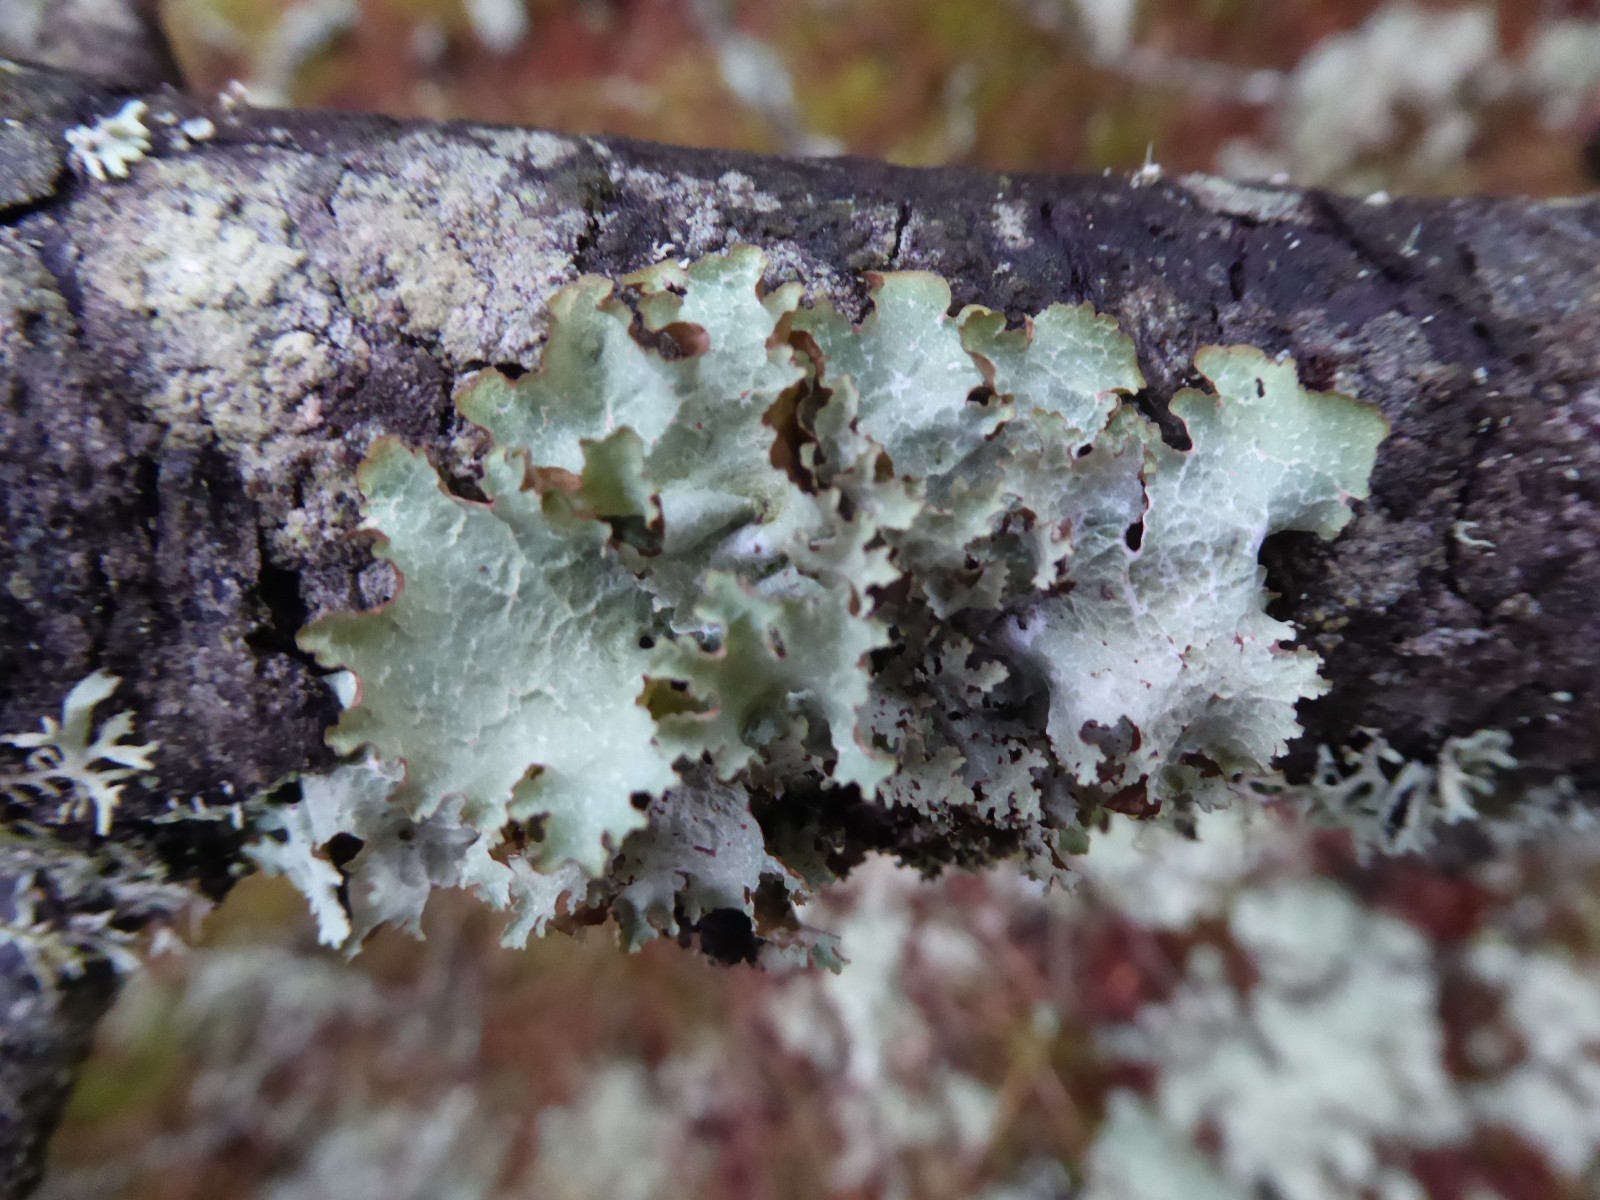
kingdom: Fungi
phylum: Ascomycota
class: Lecanoromycetes
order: Lecanorales
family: Parmeliaceae
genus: Platismatia
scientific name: Platismatia glauca
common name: blågrå papirlav
